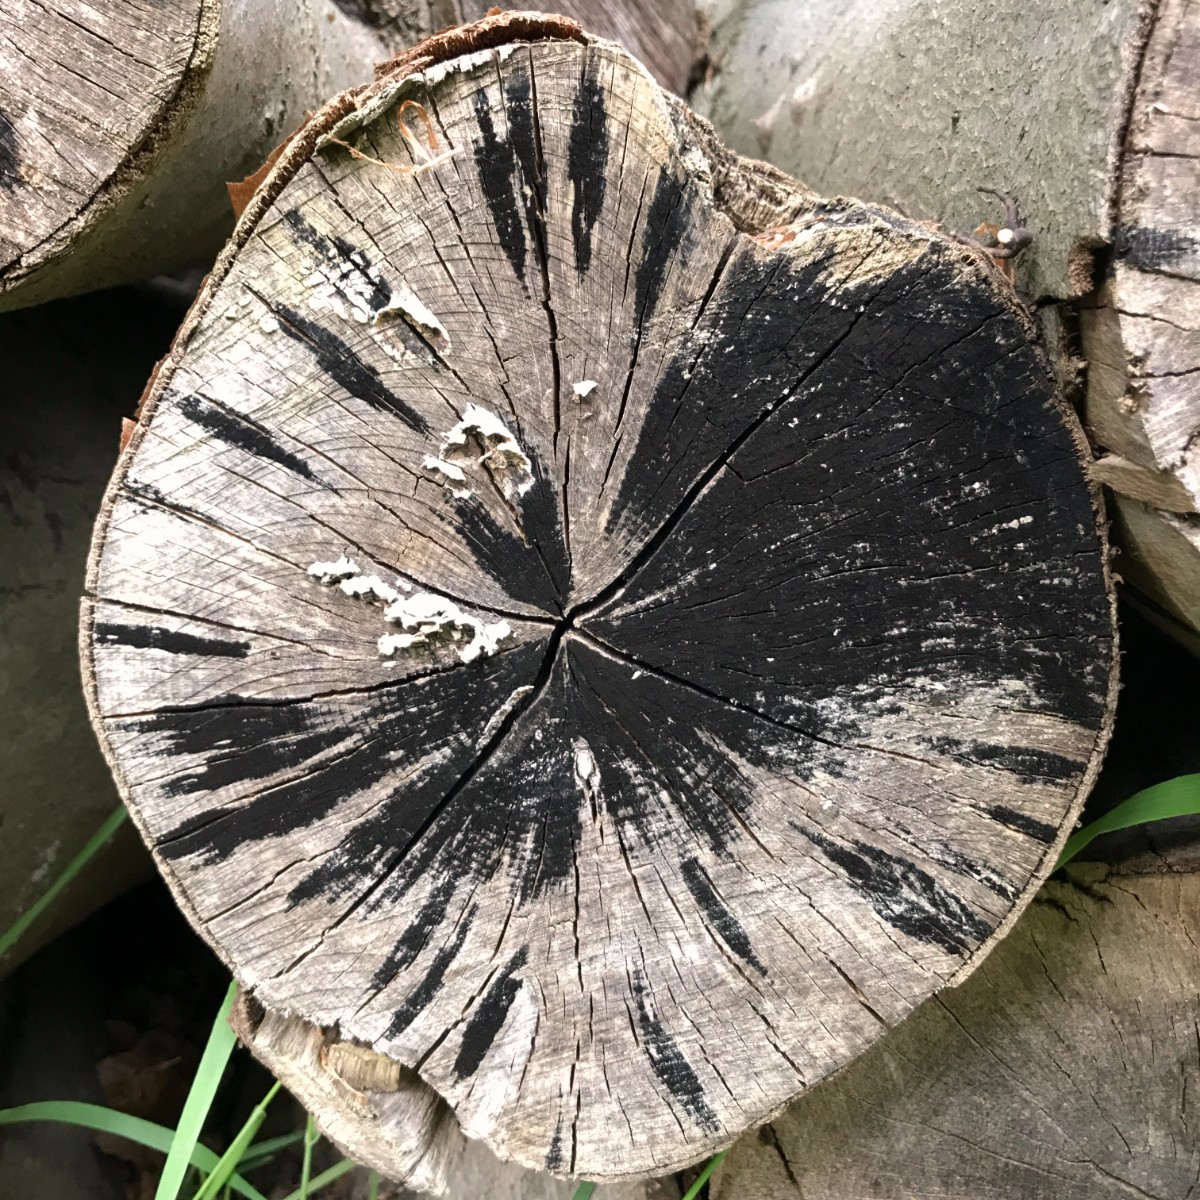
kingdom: Fungi
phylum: Ascomycota
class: Leotiomycetes
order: Helotiales
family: Helotiaceae
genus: Bispora
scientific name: Bispora pallescens
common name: måtte-snitskive
